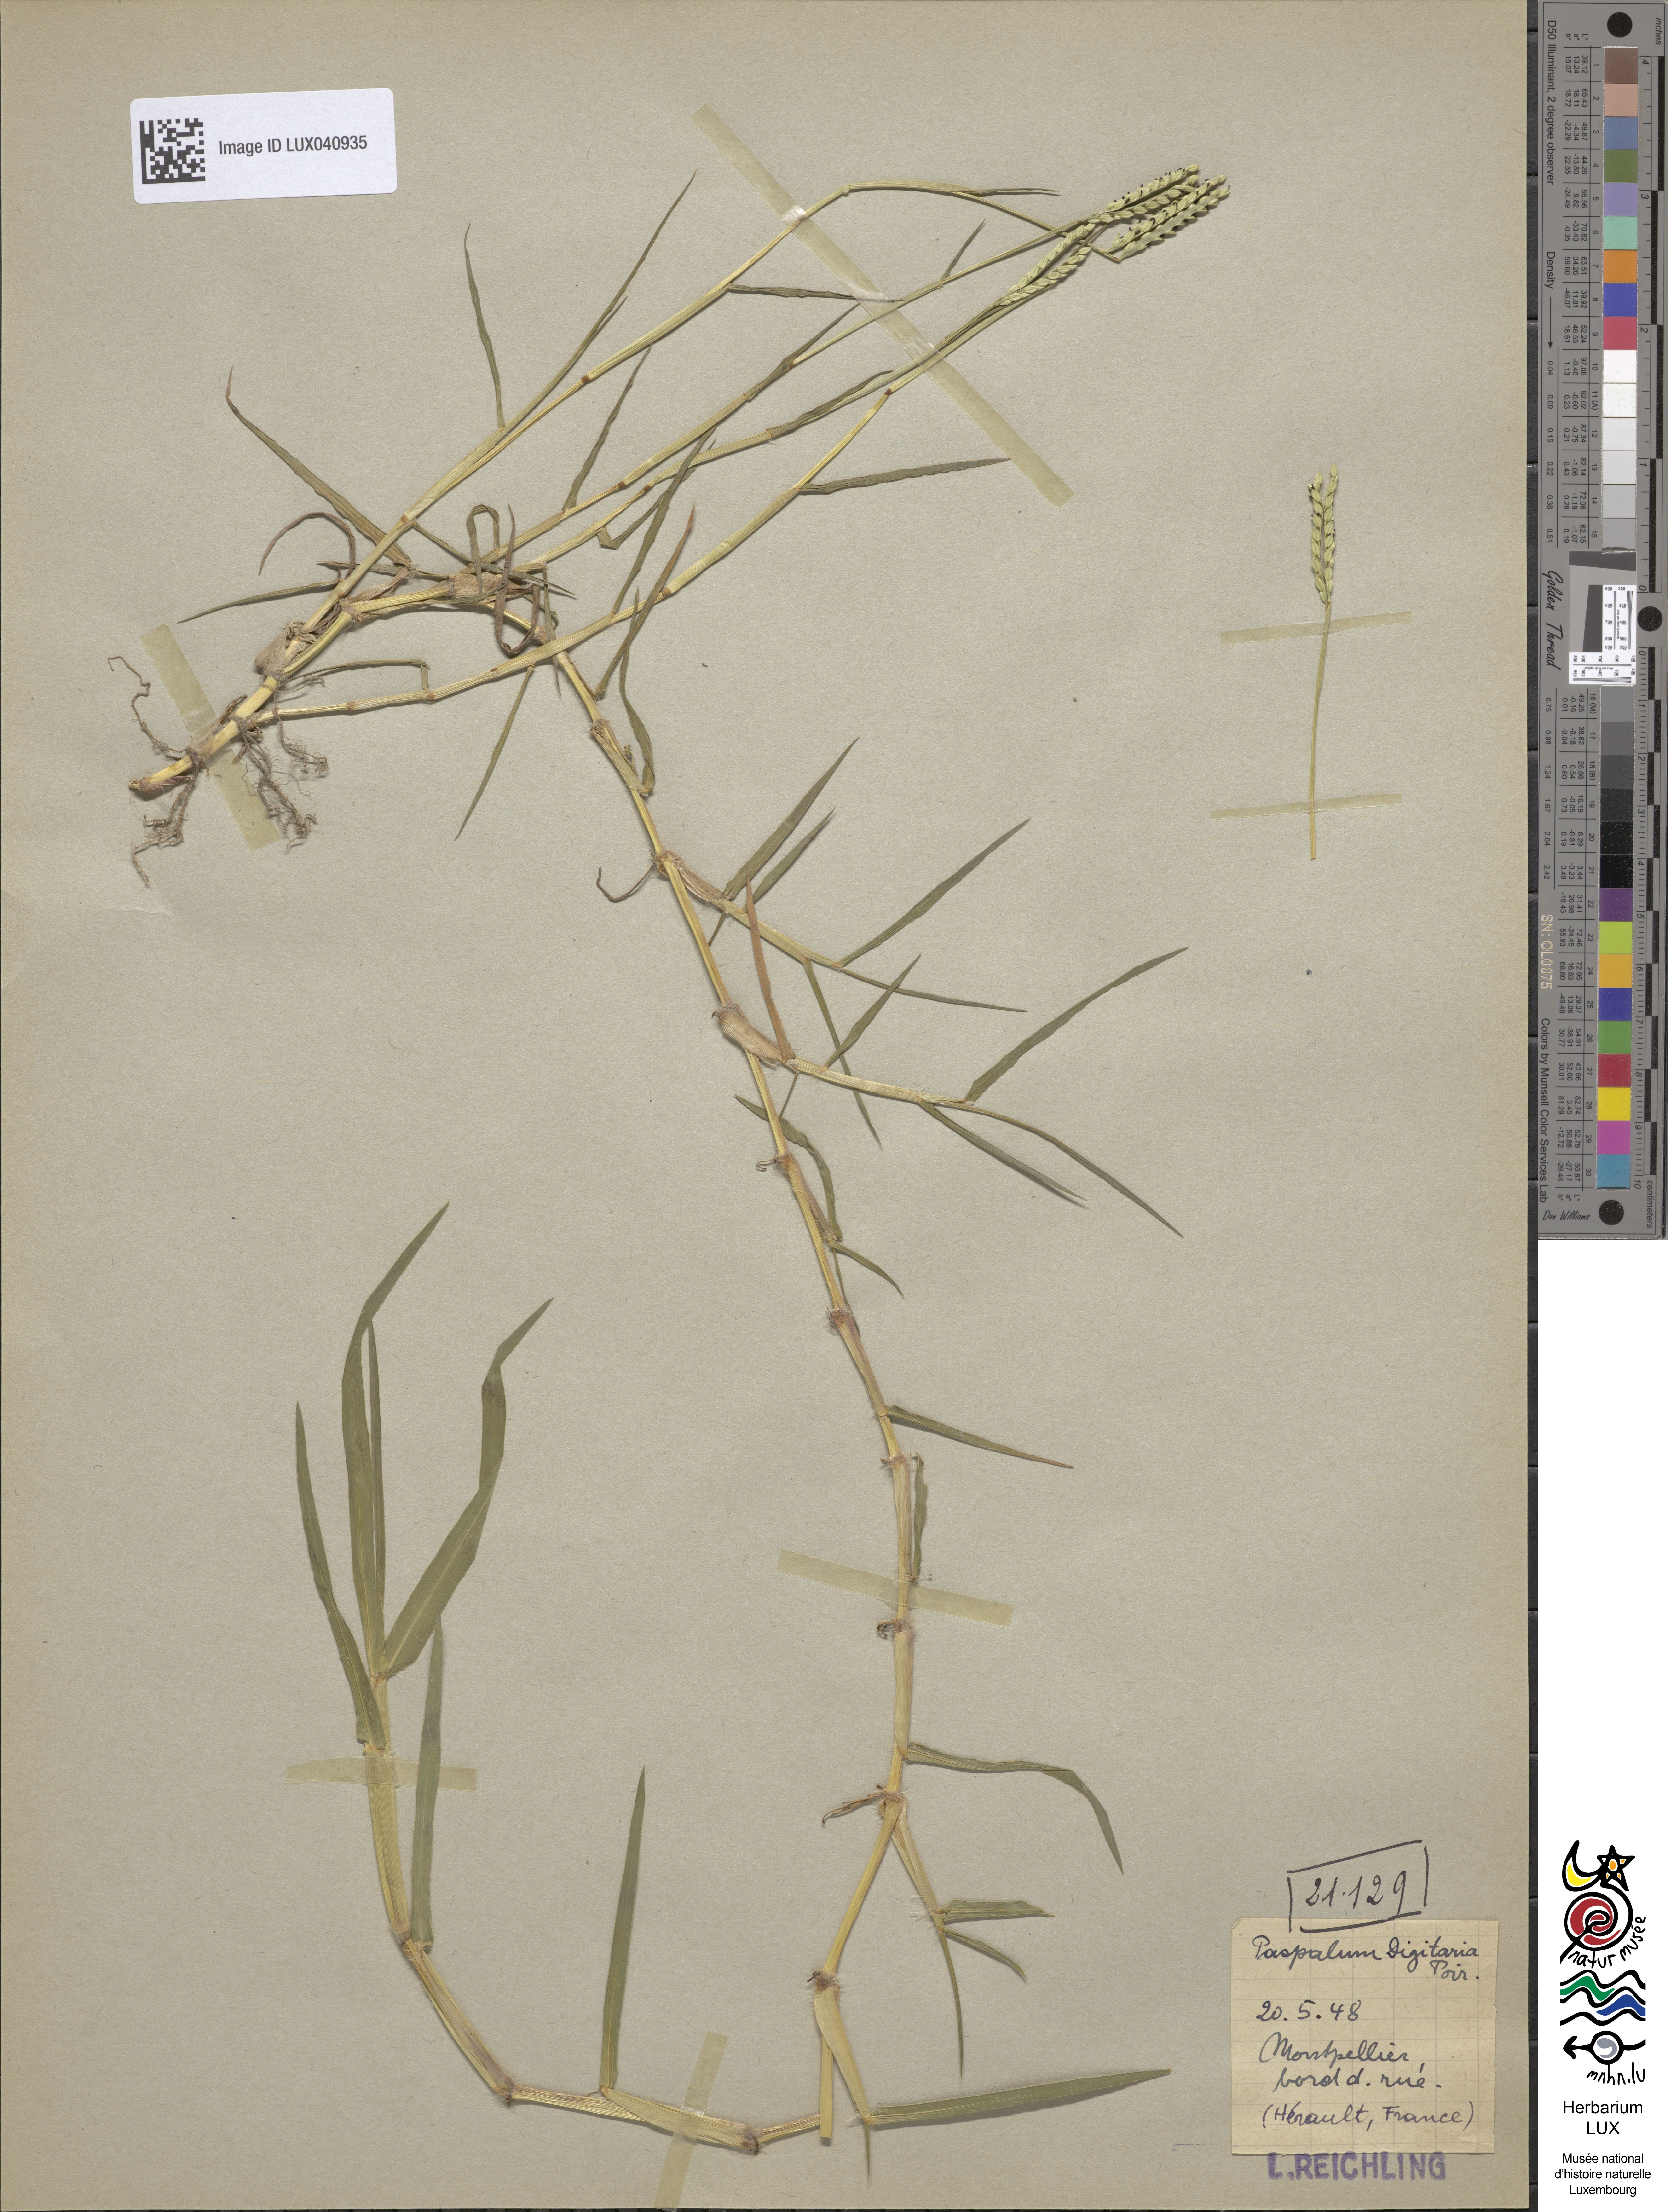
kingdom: Plantae
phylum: Tracheophyta
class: Liliopsida
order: Poales
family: Poaceae
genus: Paspalum
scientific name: Paspalum distichum
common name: Knotgrass
